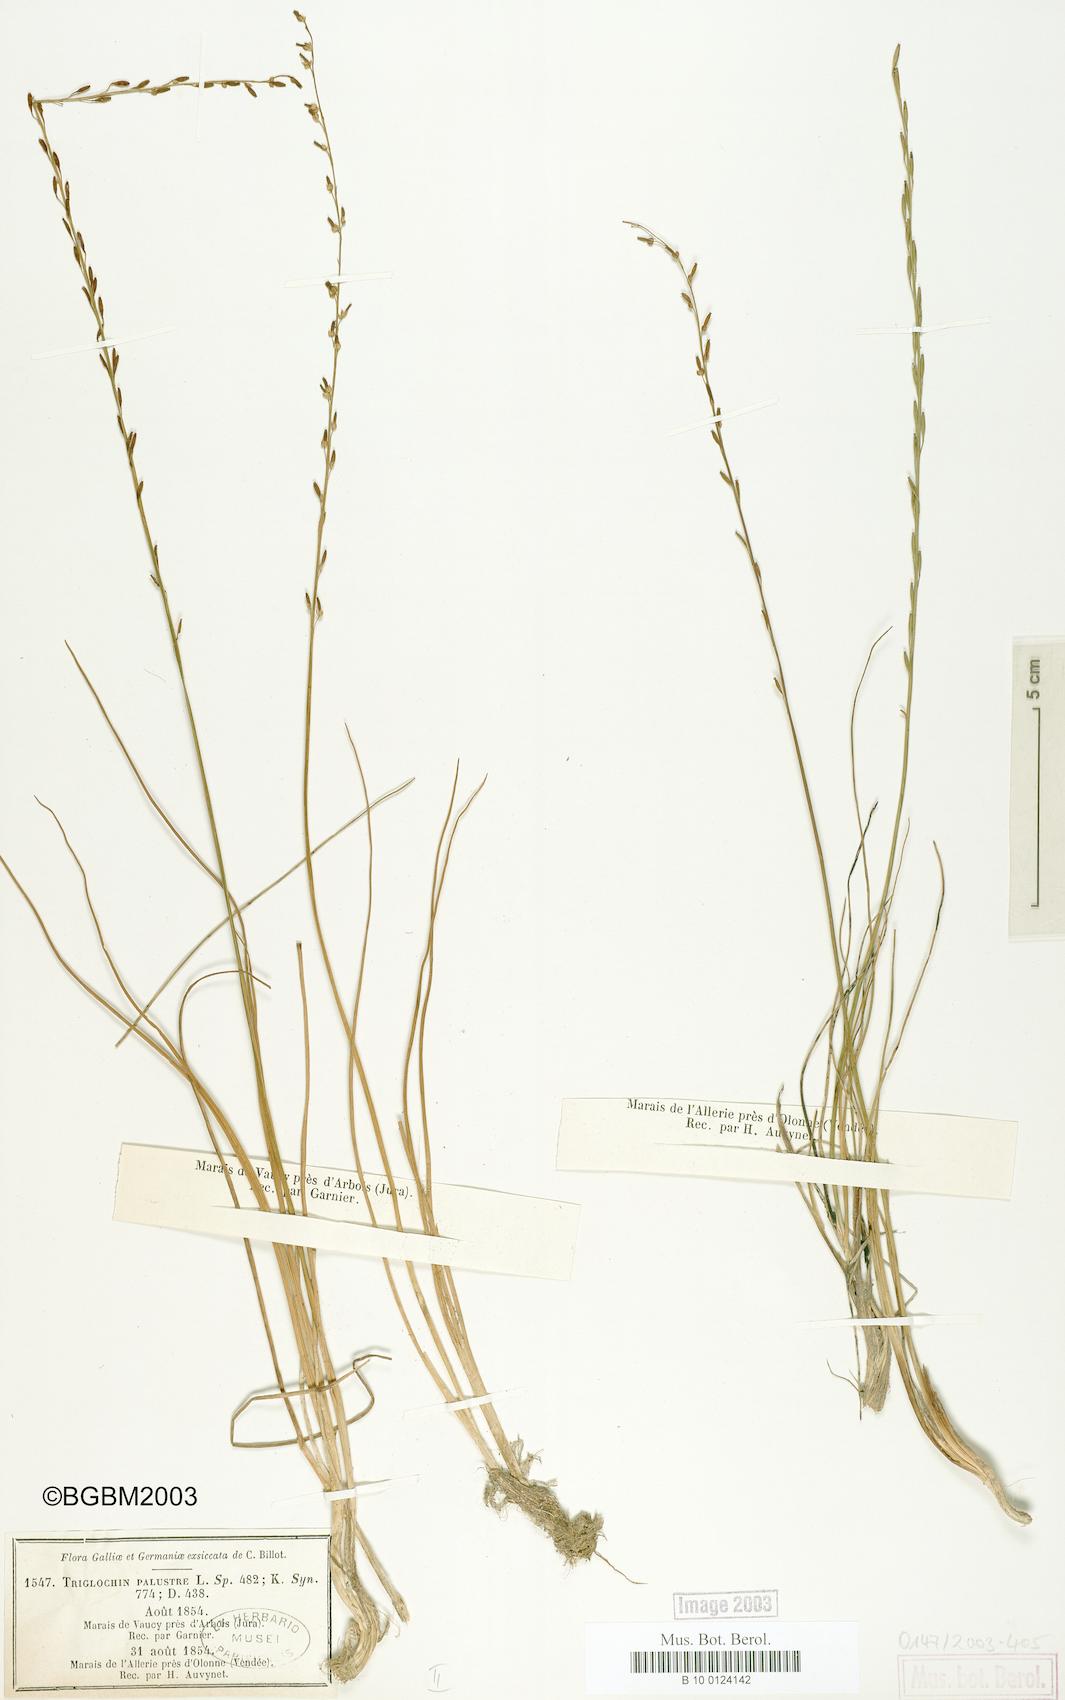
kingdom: Plantae
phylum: Tracheophyta
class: Liliopsida
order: Alismatales
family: Juncaginaceae
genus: Triglochin
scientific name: Triglochin palustris
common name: Marsh arrowgrass
